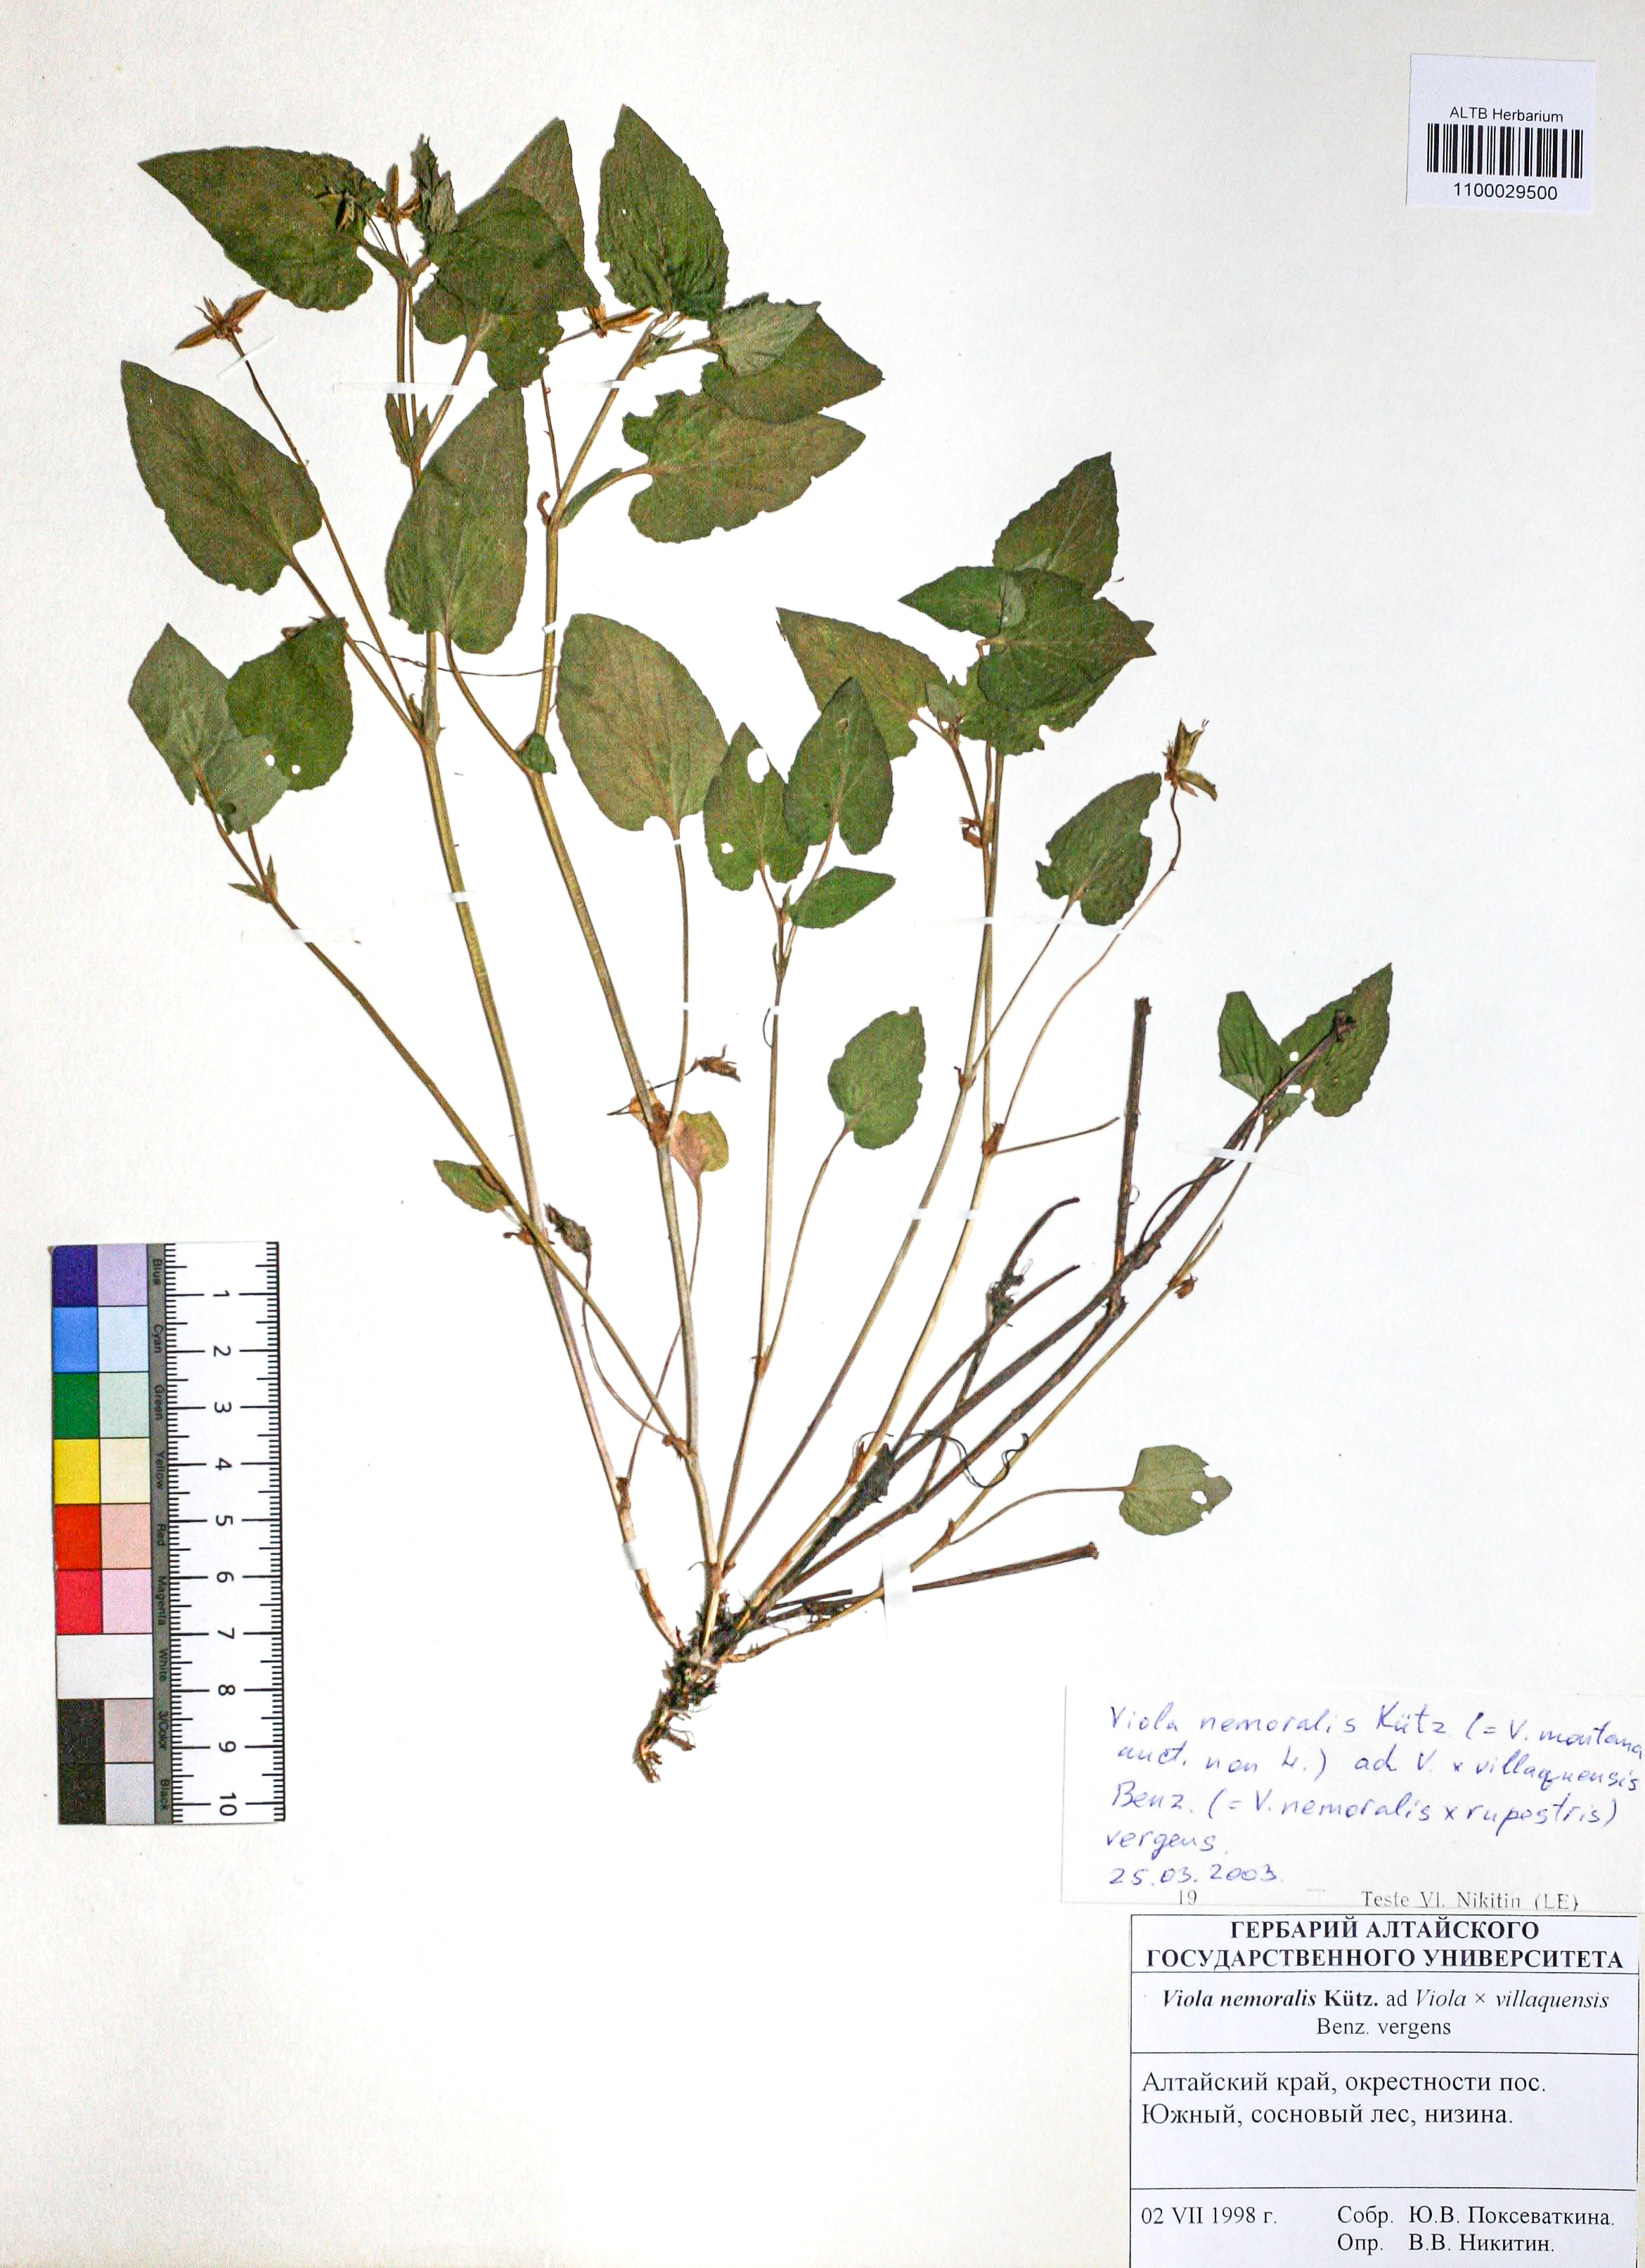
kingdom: Plantae
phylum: Tracheophyta
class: Magnoliopsida
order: Malpighiales
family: Violaceae
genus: Viola
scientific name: Viola ruppii
